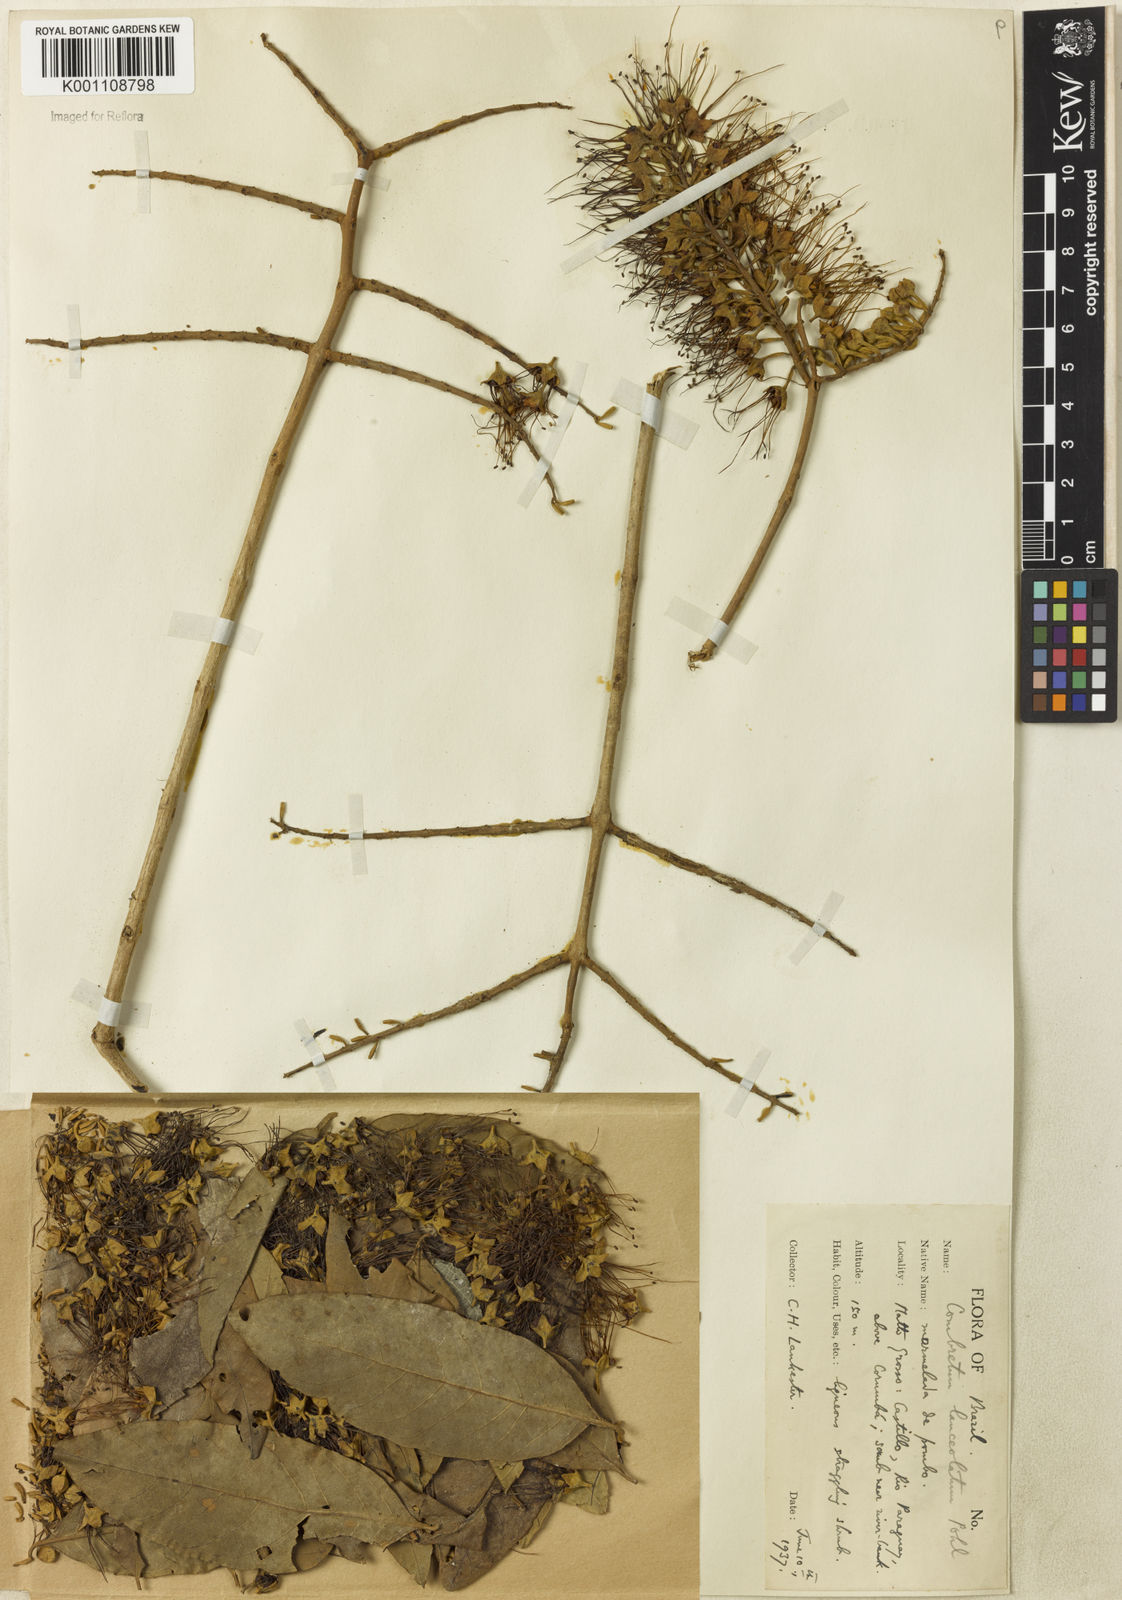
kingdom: Plantae
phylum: Tracheophyta
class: Magnoliopsida
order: Myrtales
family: Combretaceae
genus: Combretum
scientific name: Combretum lanceolatum
